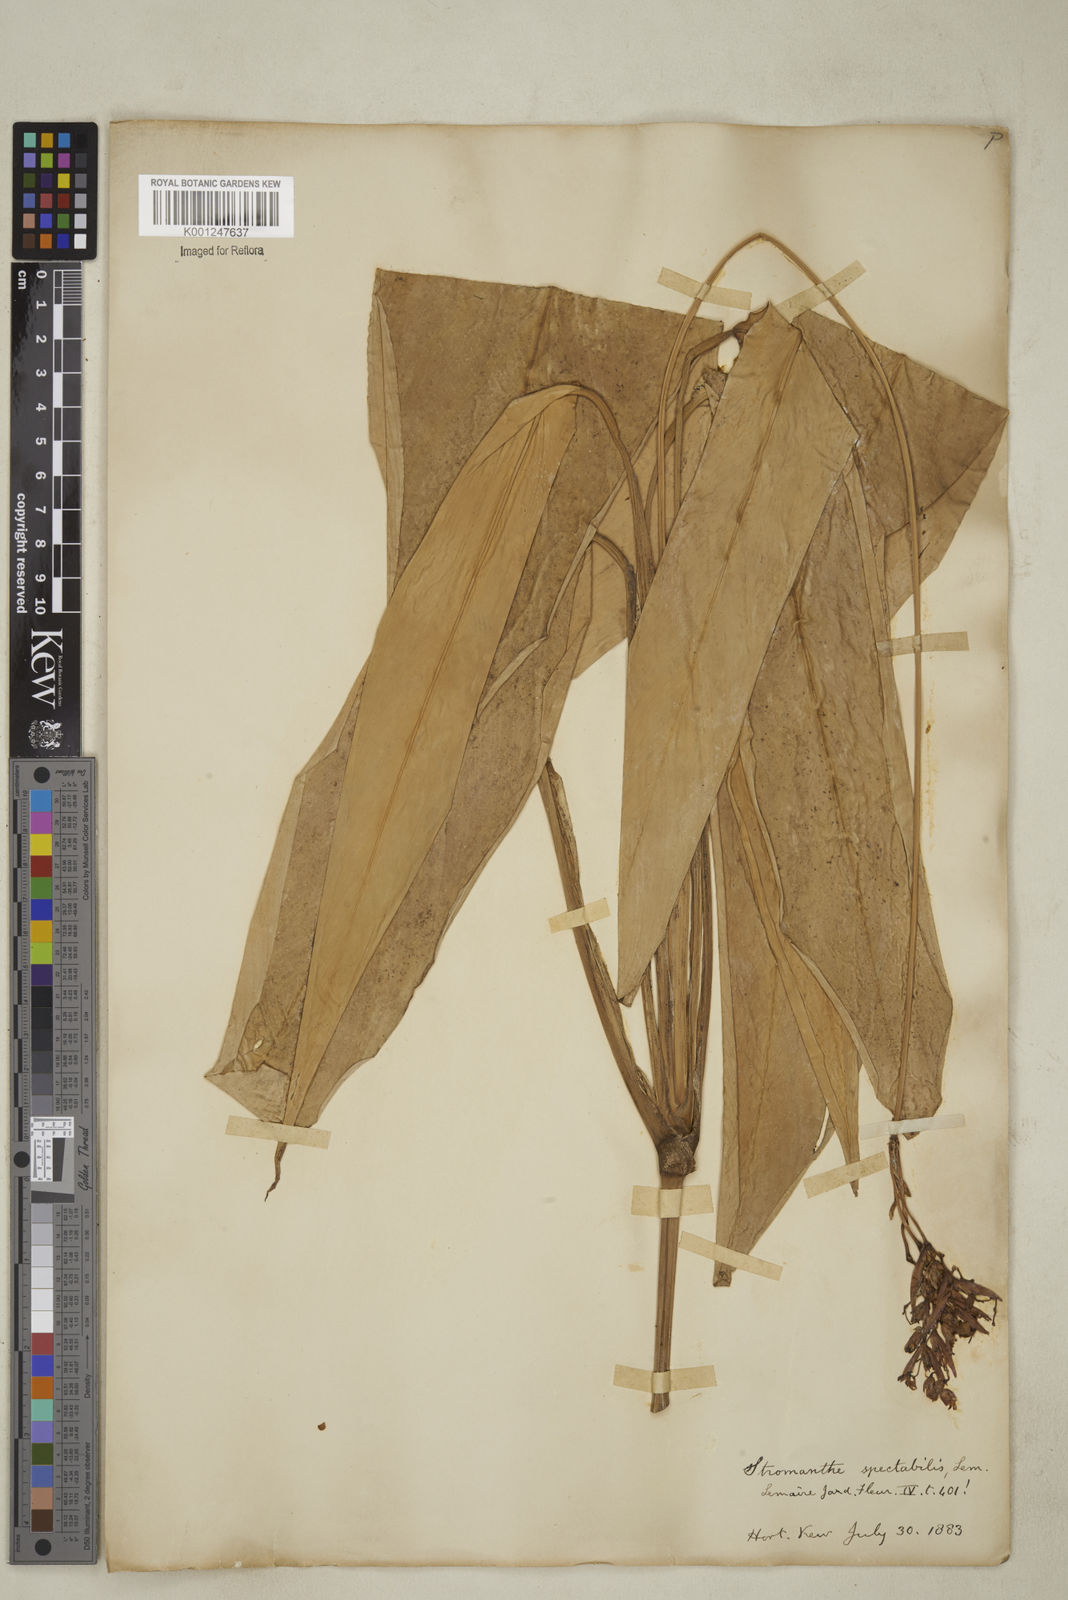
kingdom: Plantae
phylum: Tracheophyta
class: Liliopsida
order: Zingiberales
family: Marantaceae
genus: Stromanthe
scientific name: Stromanthe thalia
